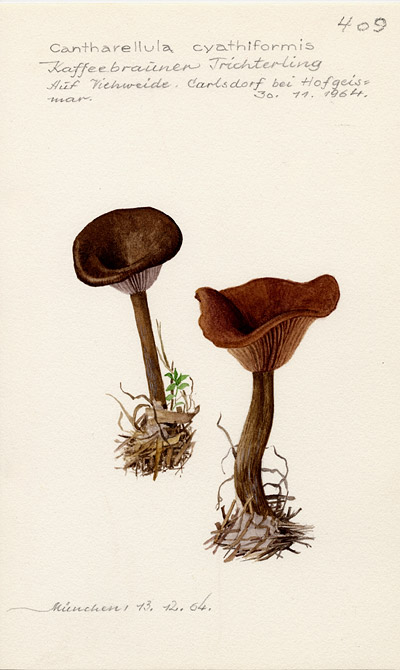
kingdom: Fungi
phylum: Basidiomycota
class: Agaricomycetes
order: Agaricales
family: Pseudoclitocybaceae
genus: Pseudoclitocybe
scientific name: Pseudoclitocybe cyathiformis
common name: Goblet
